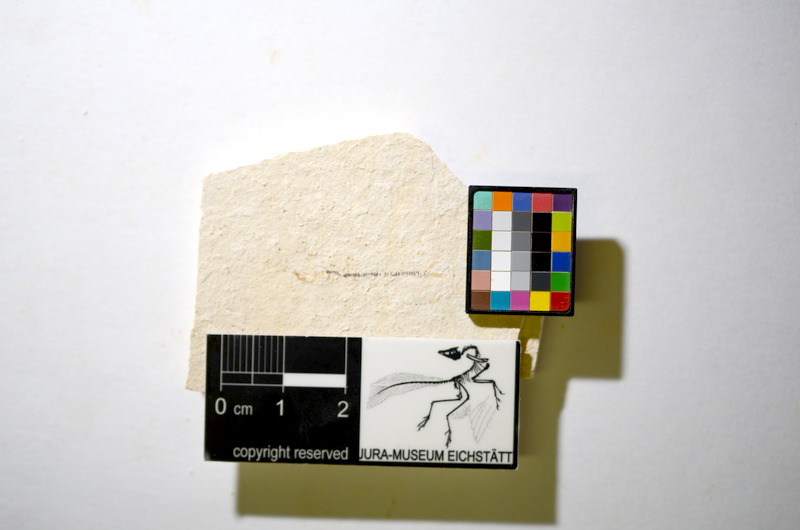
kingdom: Animalia
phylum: Chordata
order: Salmoniformes
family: Orthogonikleithridae
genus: Orthogonikleithrus
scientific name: Orthogonikleithrus hoelli
